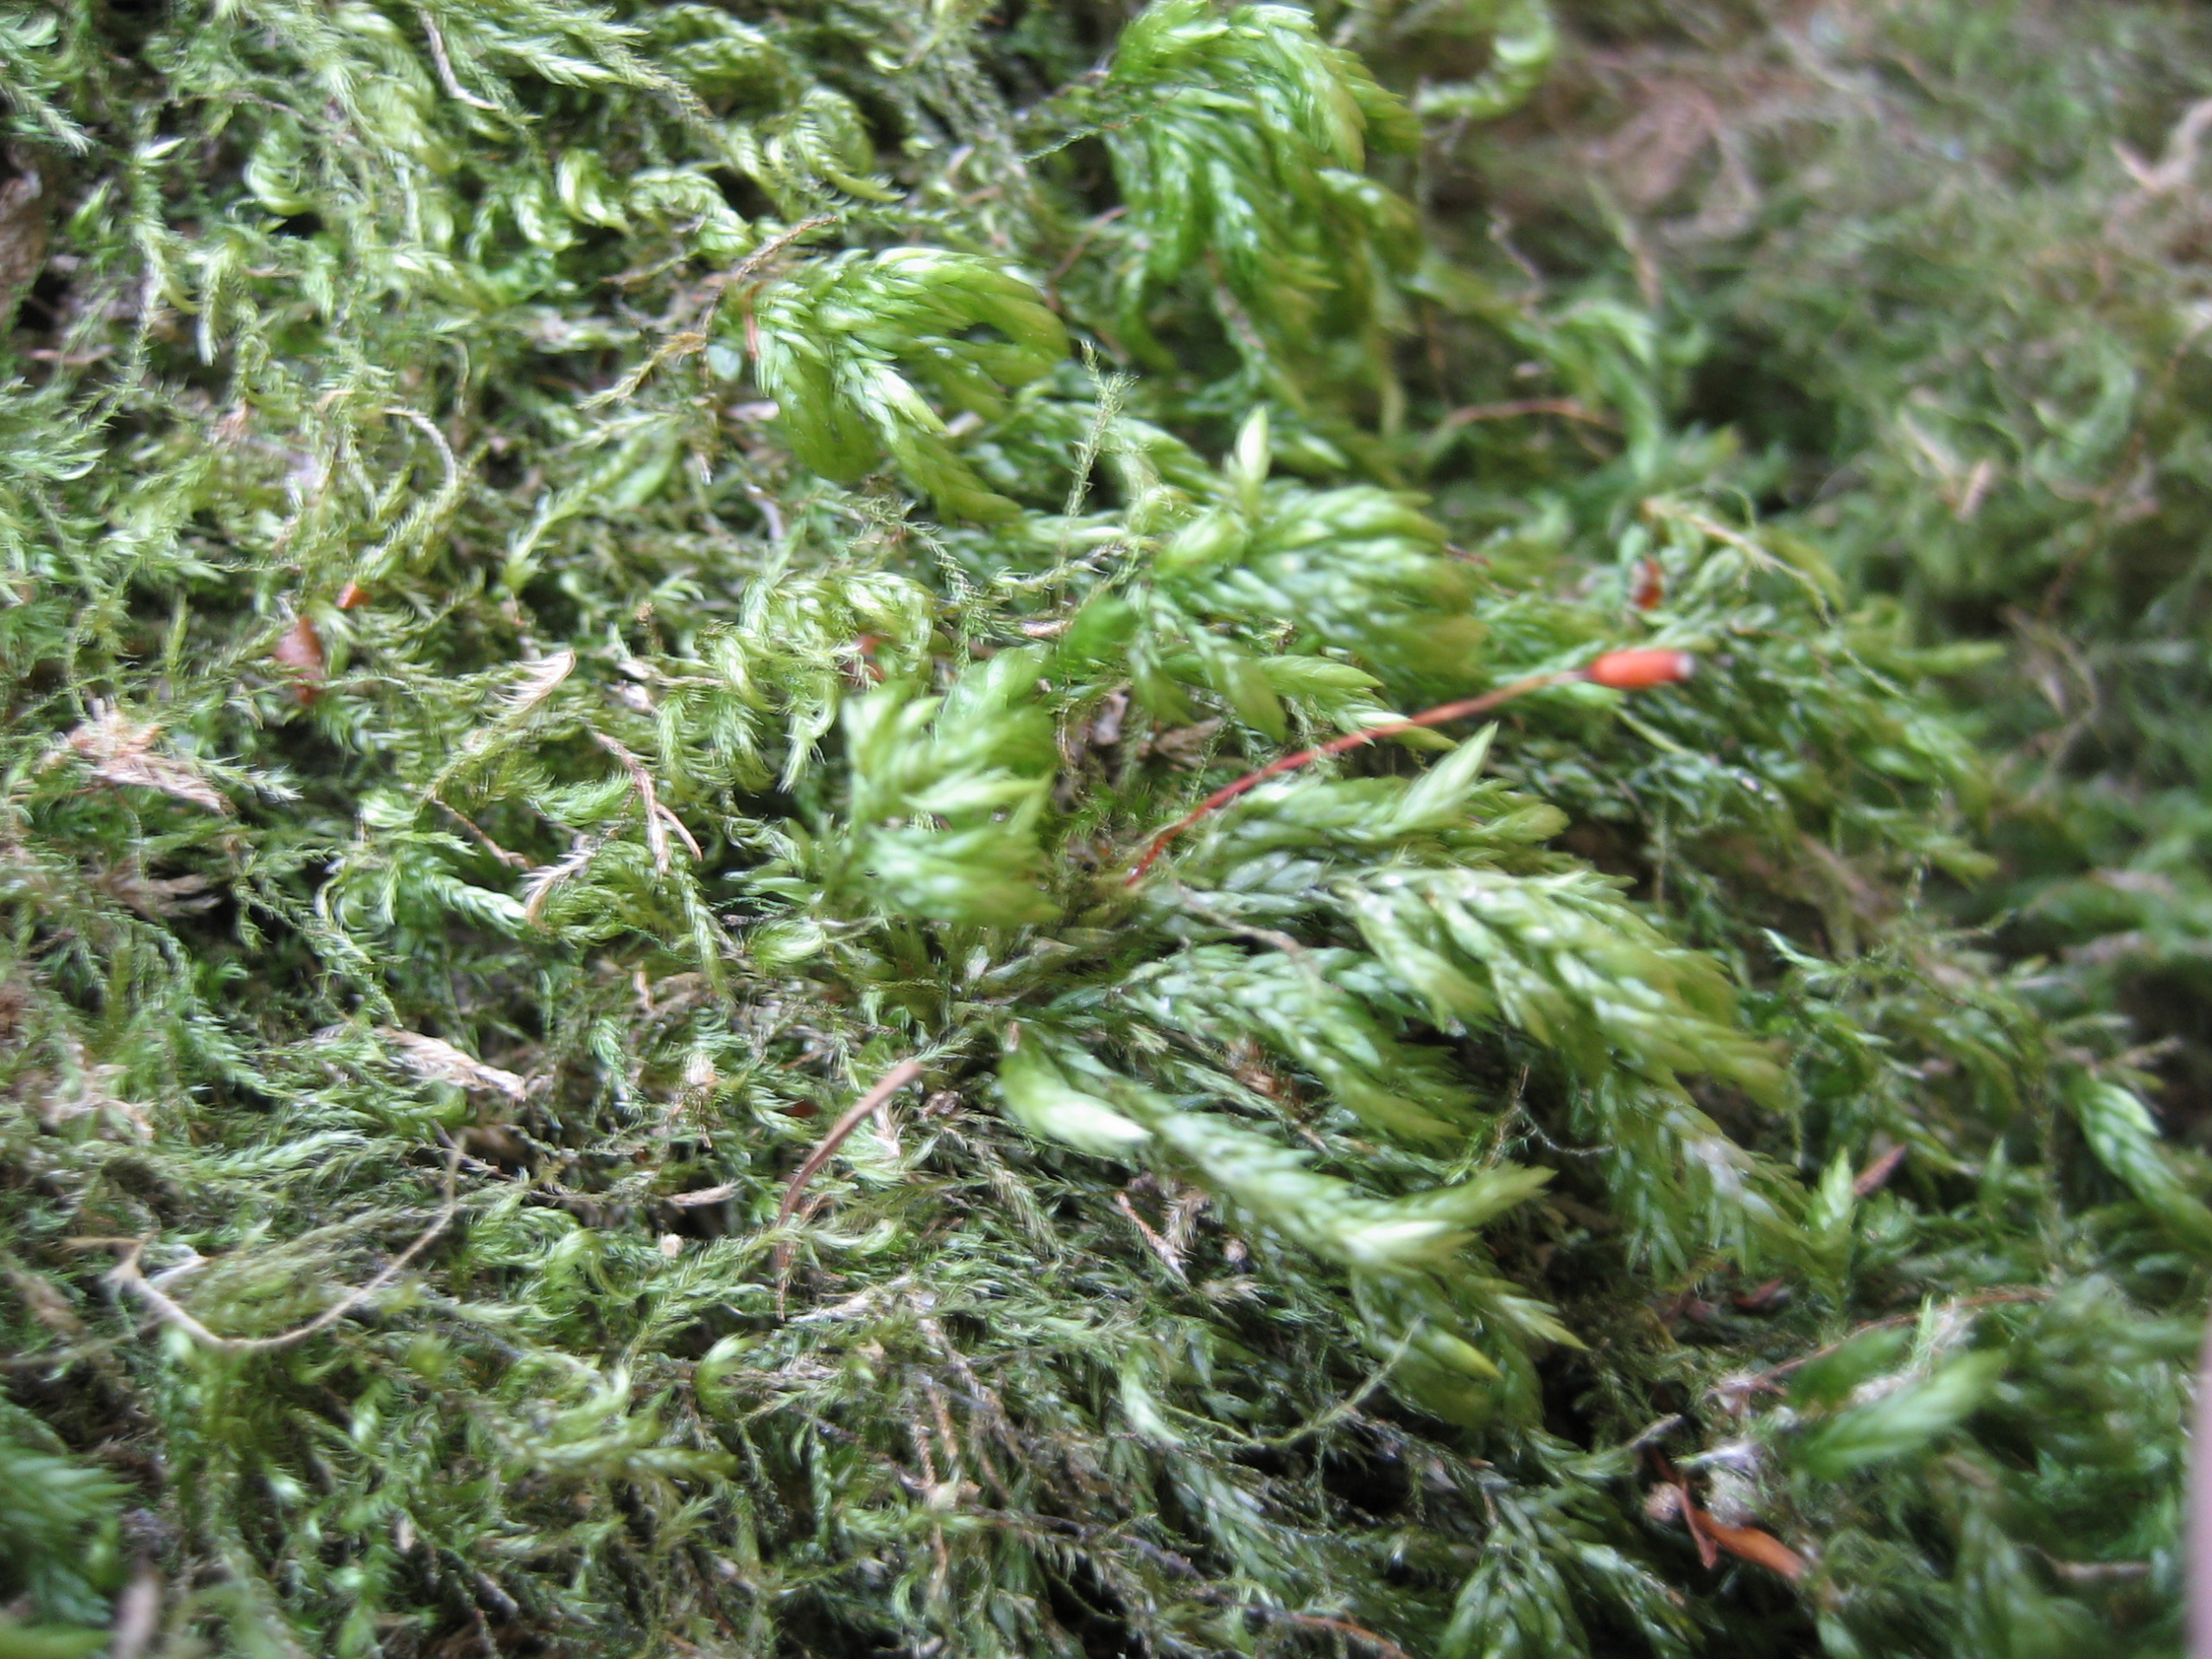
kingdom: Plantae
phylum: Bryophyta
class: Bryopsida
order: Hypnales
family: Lembophyllaceae
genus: Isothecium
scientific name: Isothecium alopecuroides
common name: Stor stammemos
